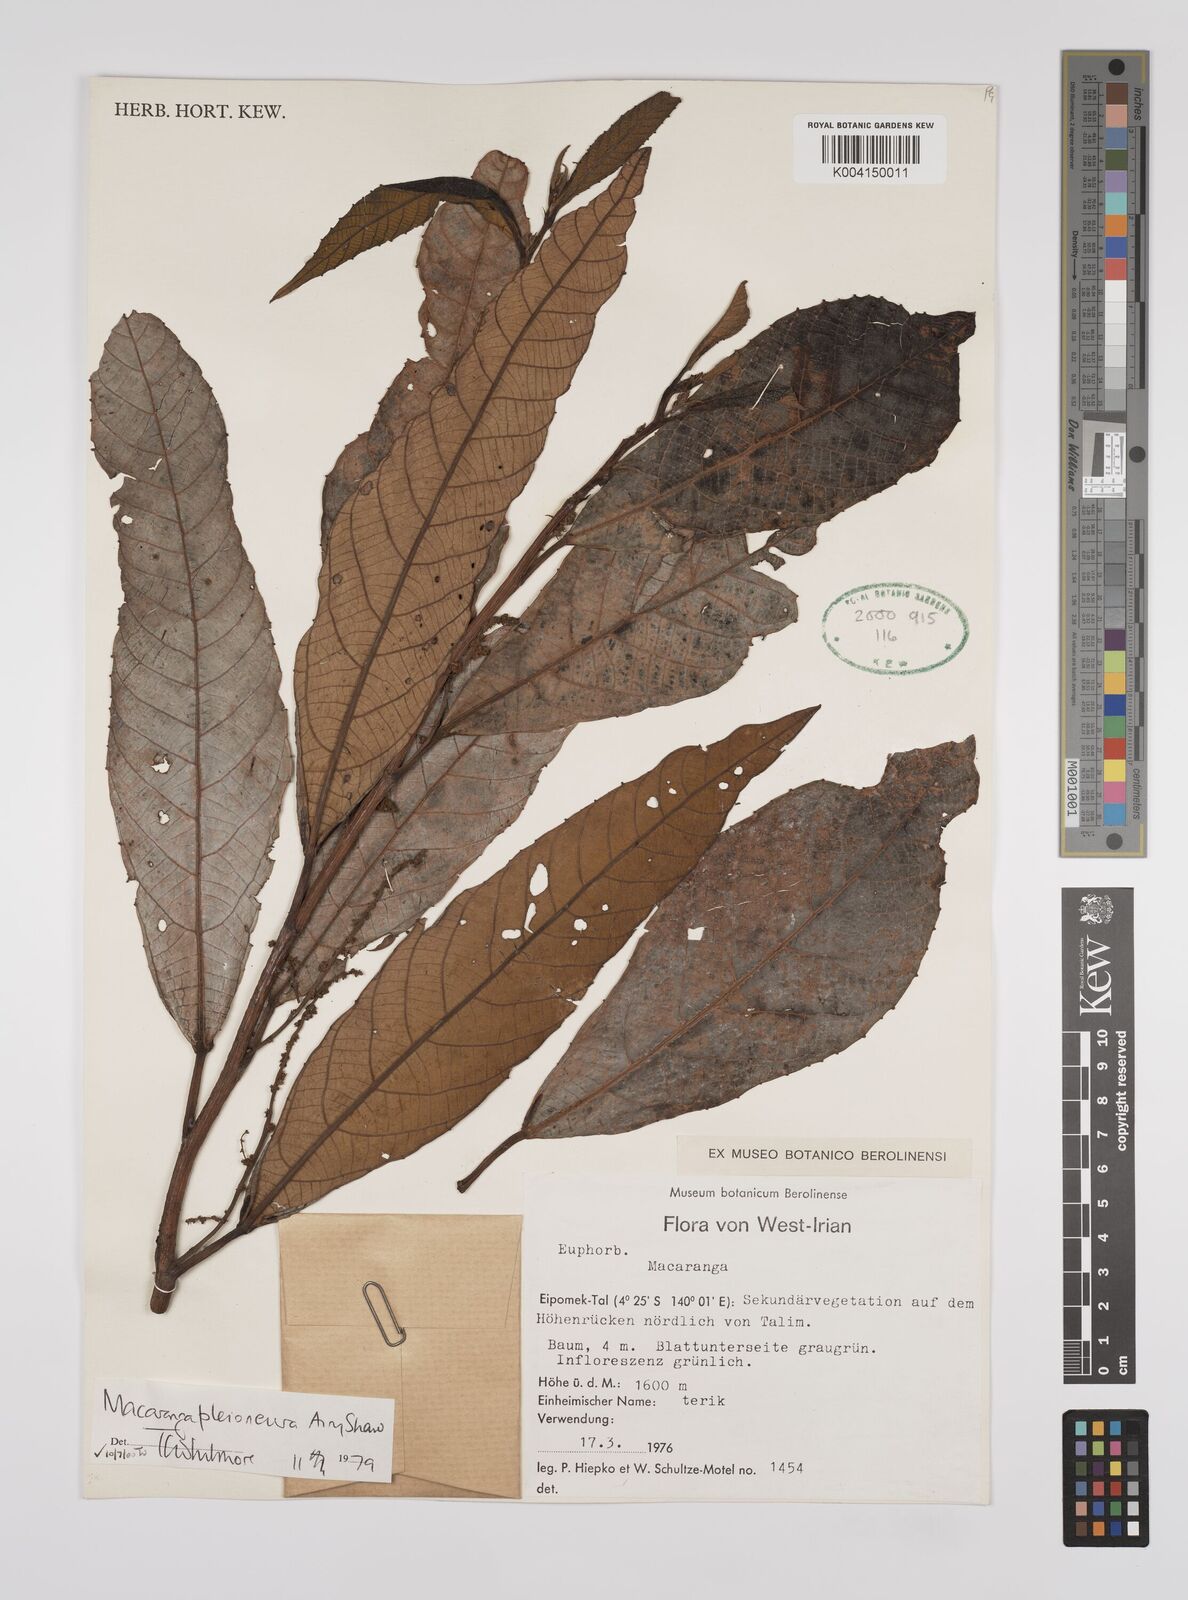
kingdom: Plantae
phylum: Tracheophyta
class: Magnoliopsida
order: Malpighiales
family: Euphorbiaceae
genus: Macaranga
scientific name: Macaranga pleioneura
